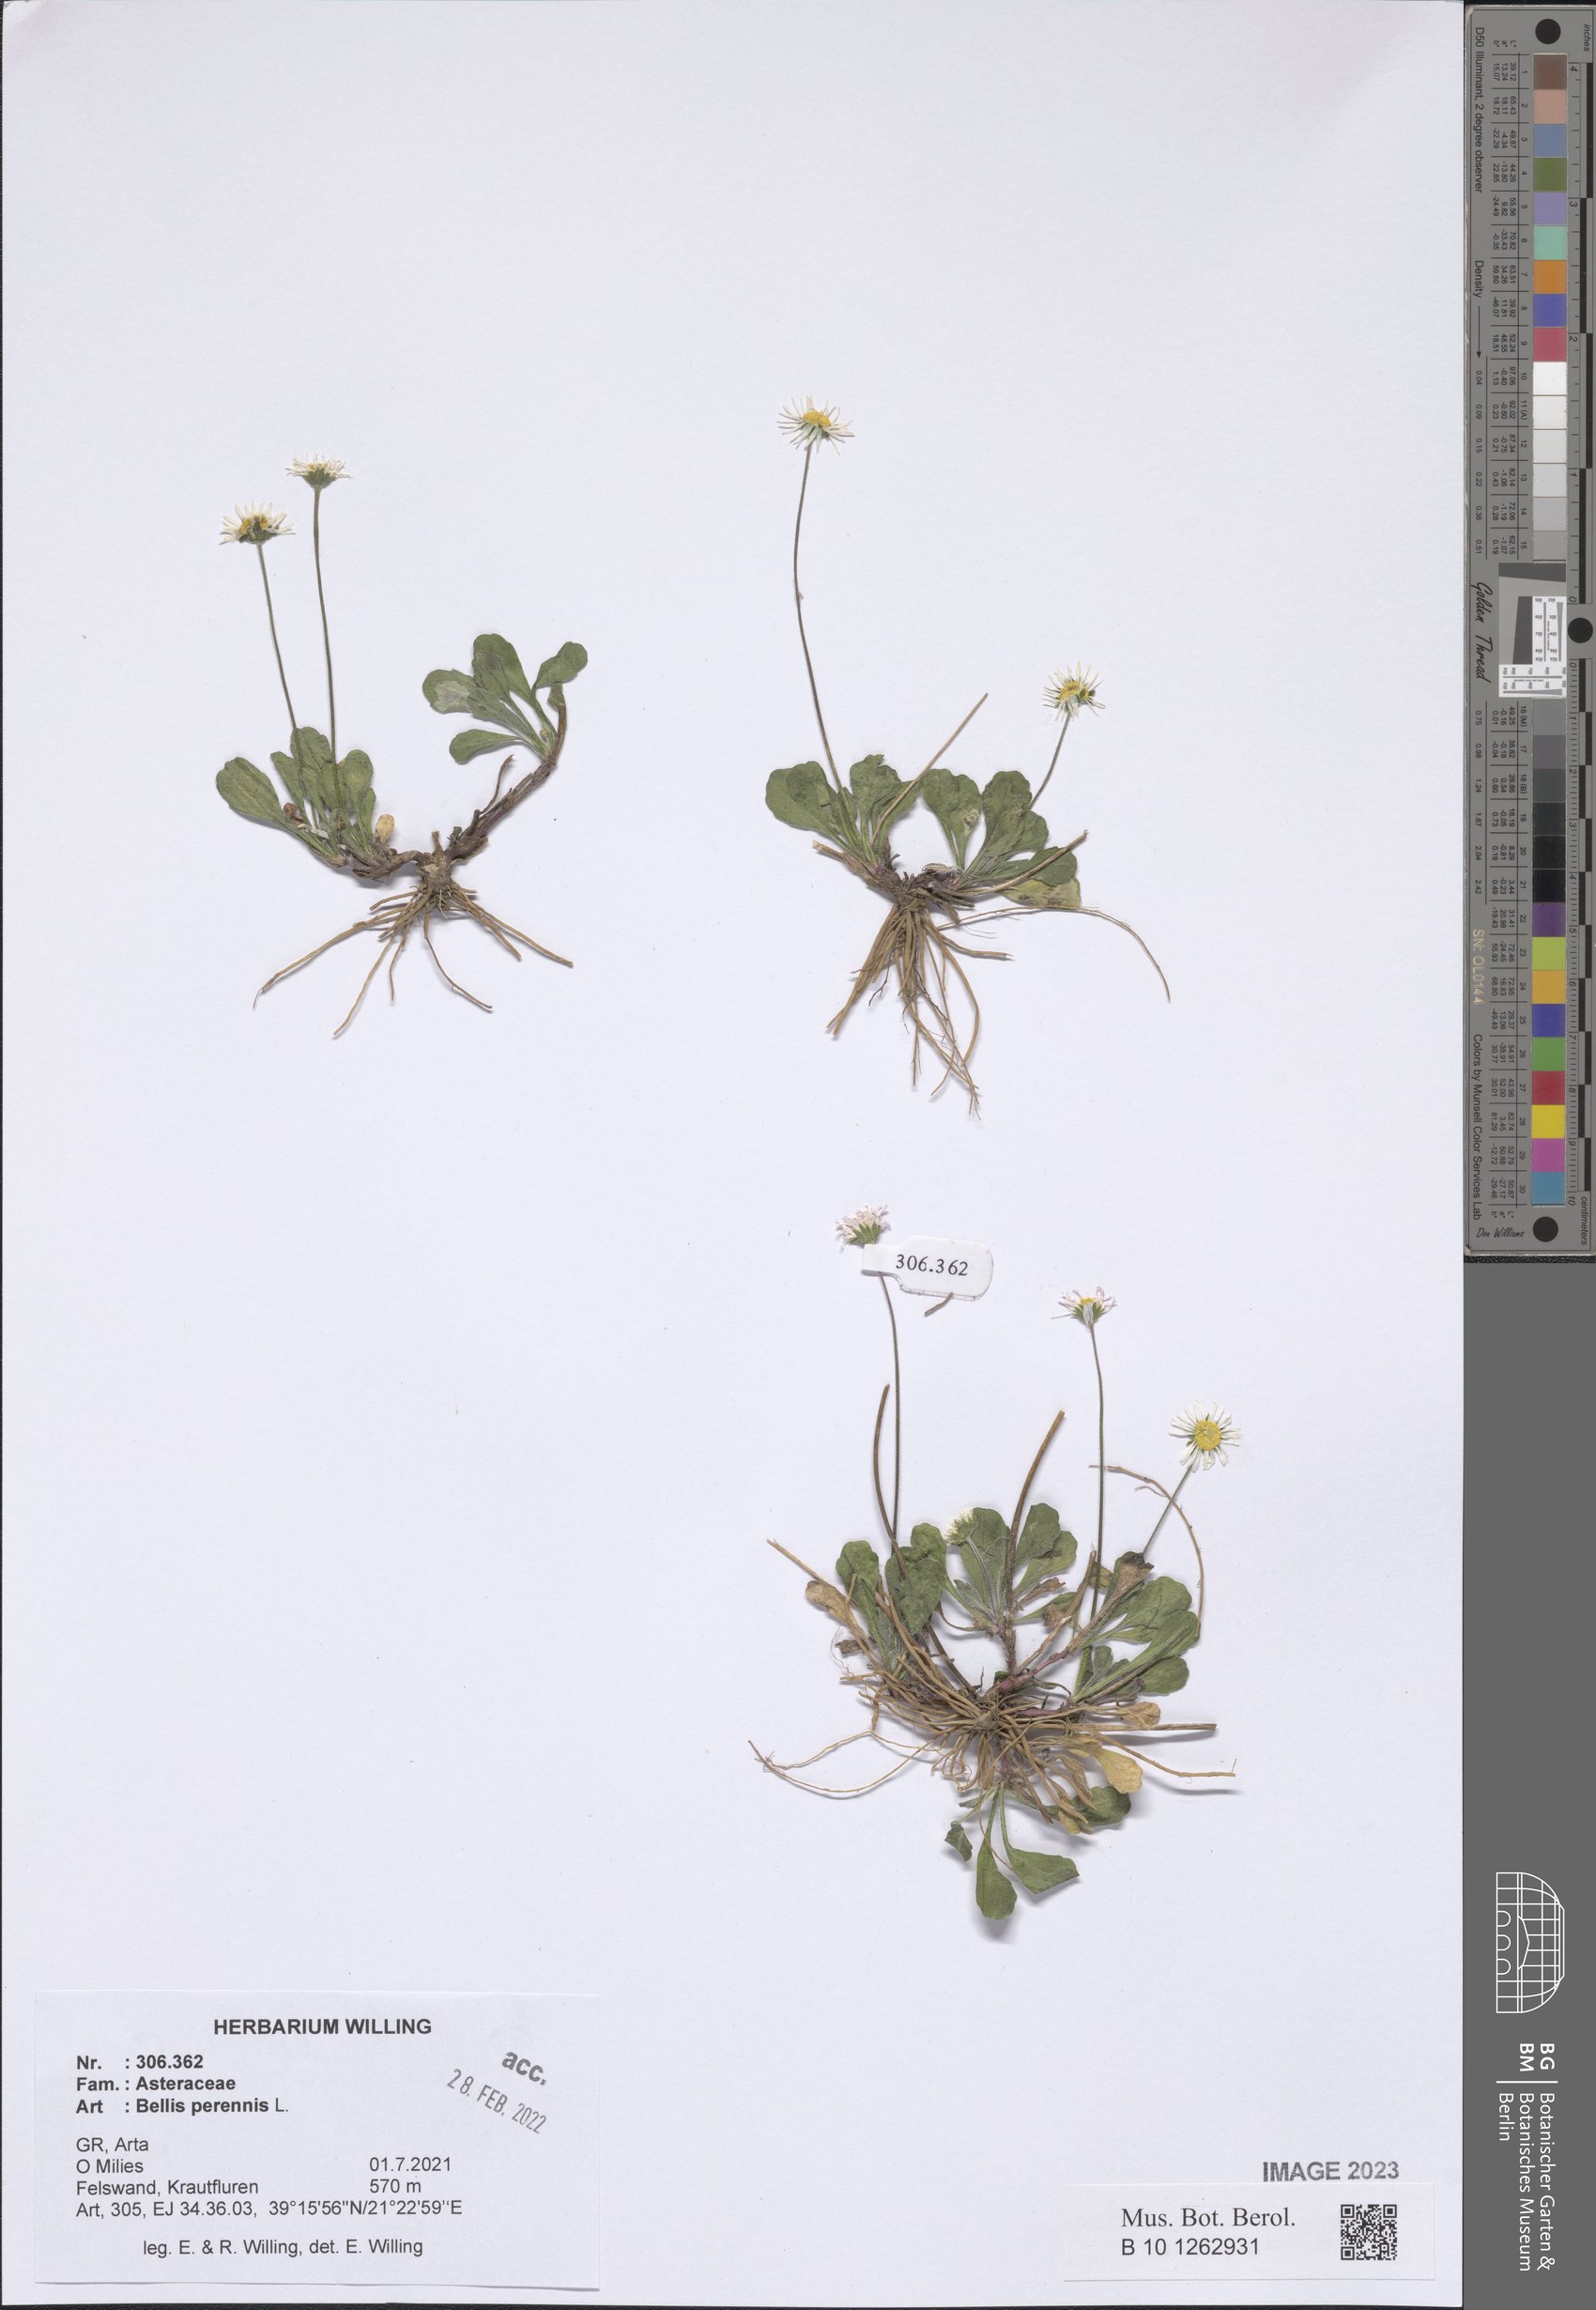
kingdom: Plantae
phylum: Tracheophyta
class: Magnoliopsida
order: Asterales
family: Asteraceae
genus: Bellis
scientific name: Bellis perennis
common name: Lawndaisy
